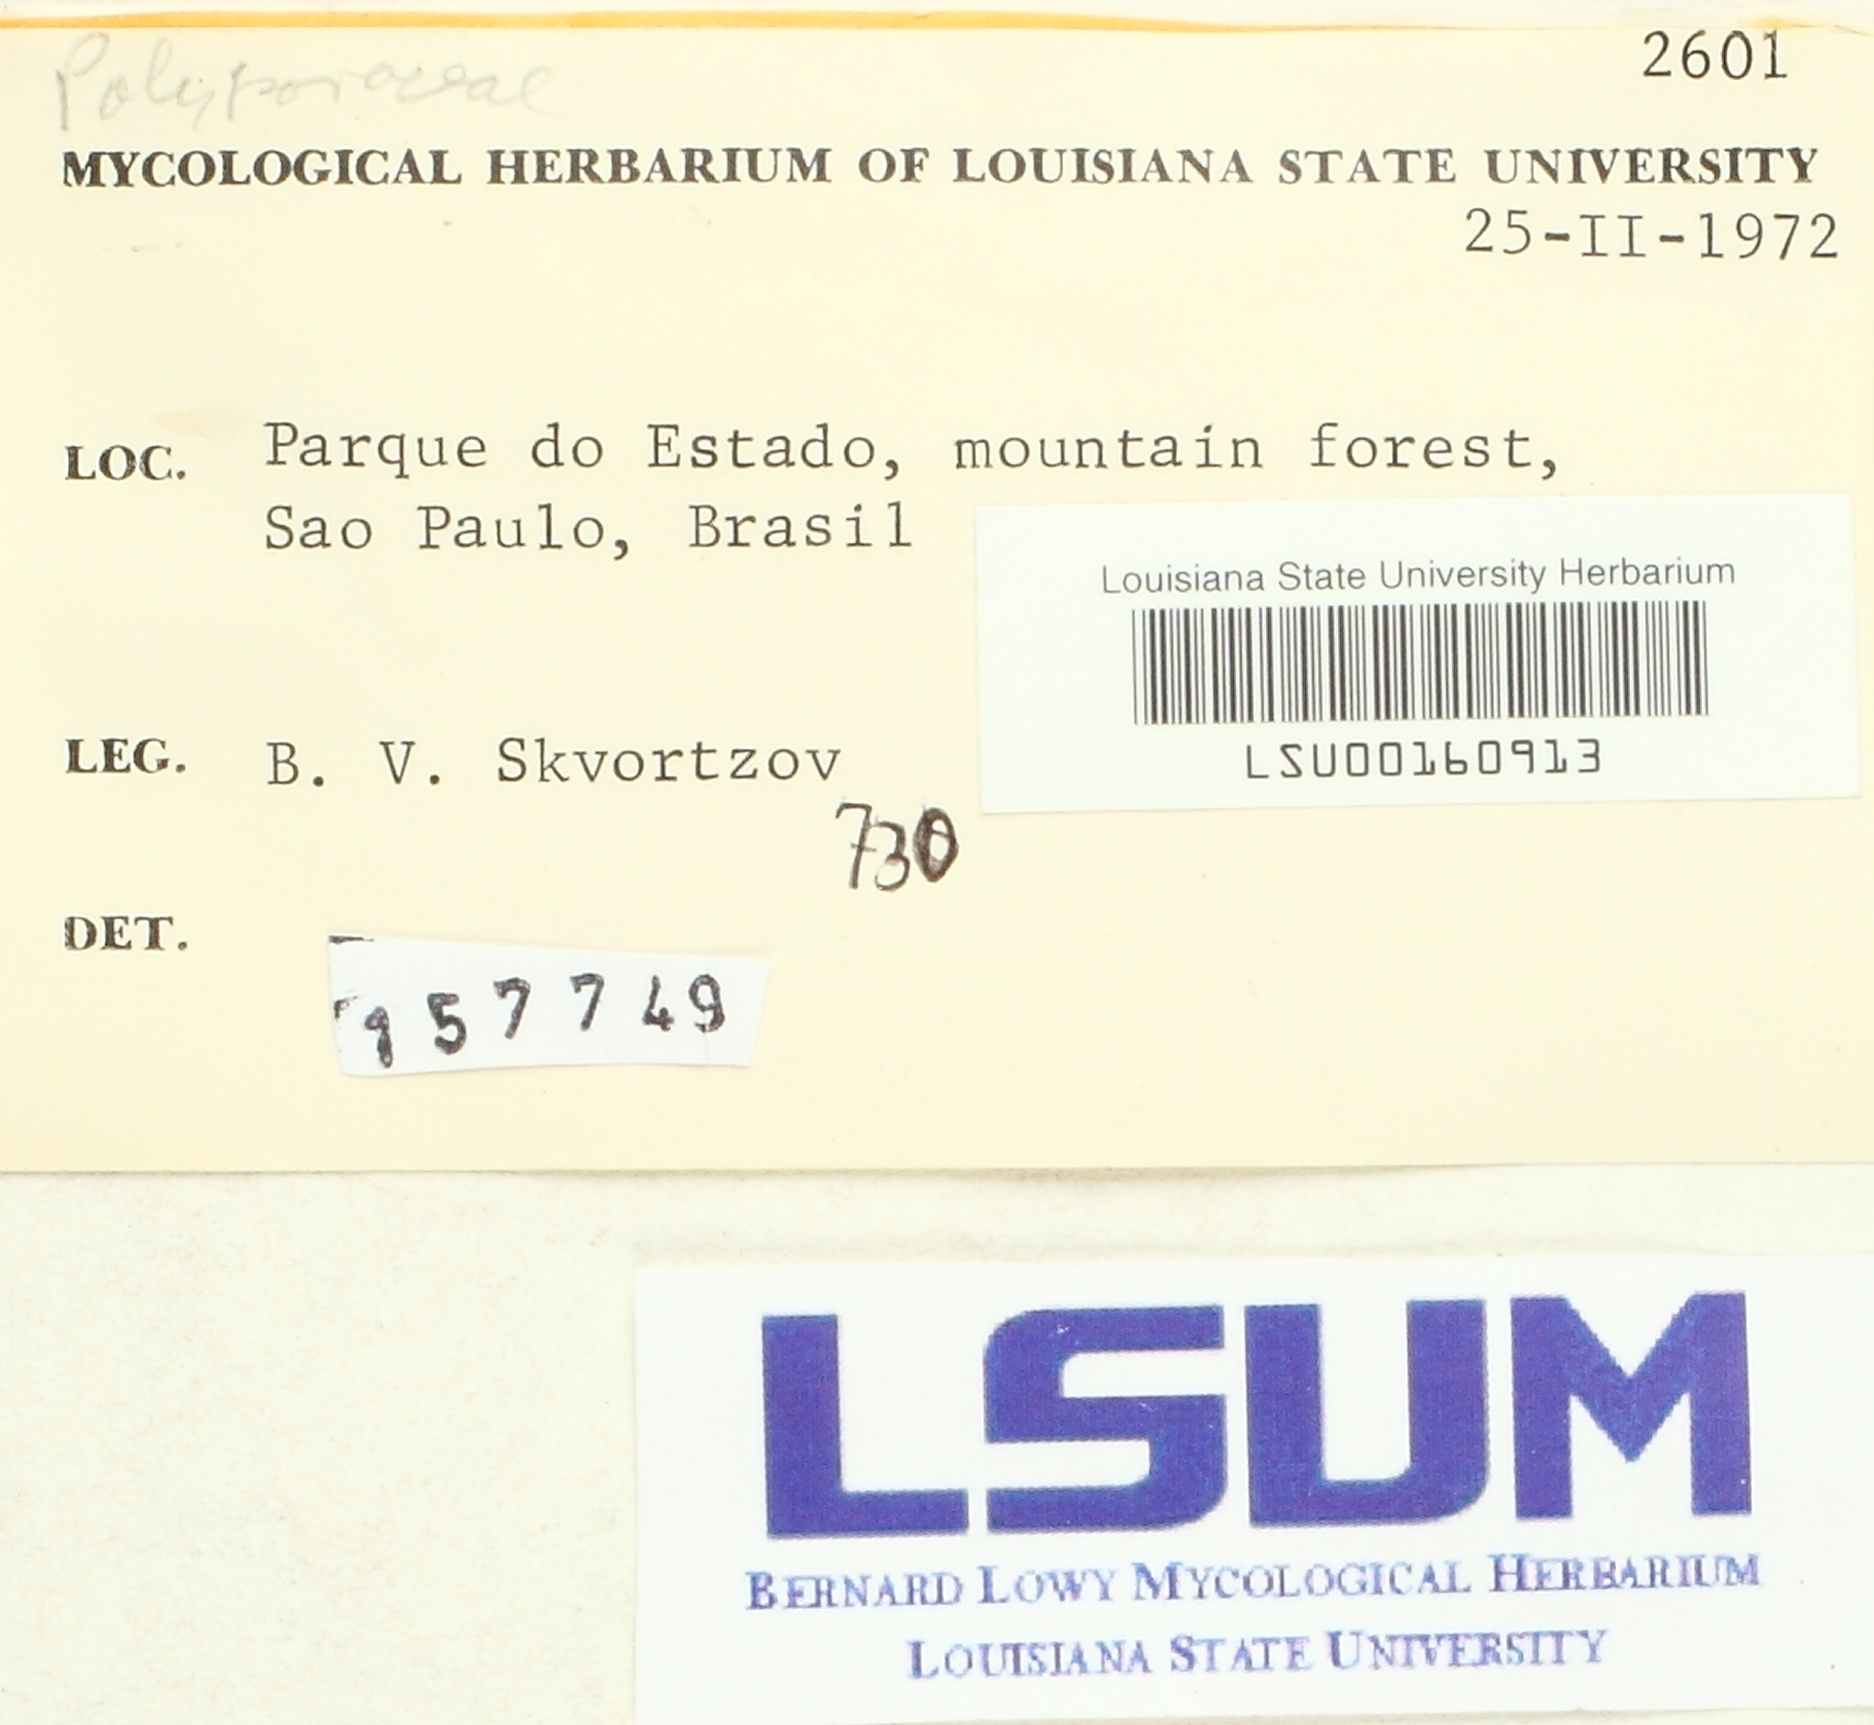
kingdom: Fungi
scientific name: Fungi
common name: Fungi
